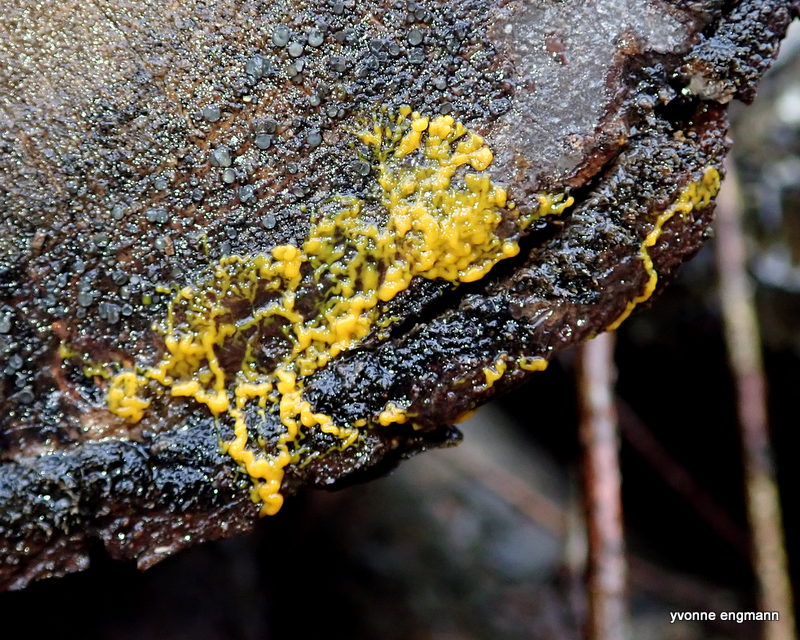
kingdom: Protozoa
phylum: Mycetozoa
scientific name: Mycetozoa
